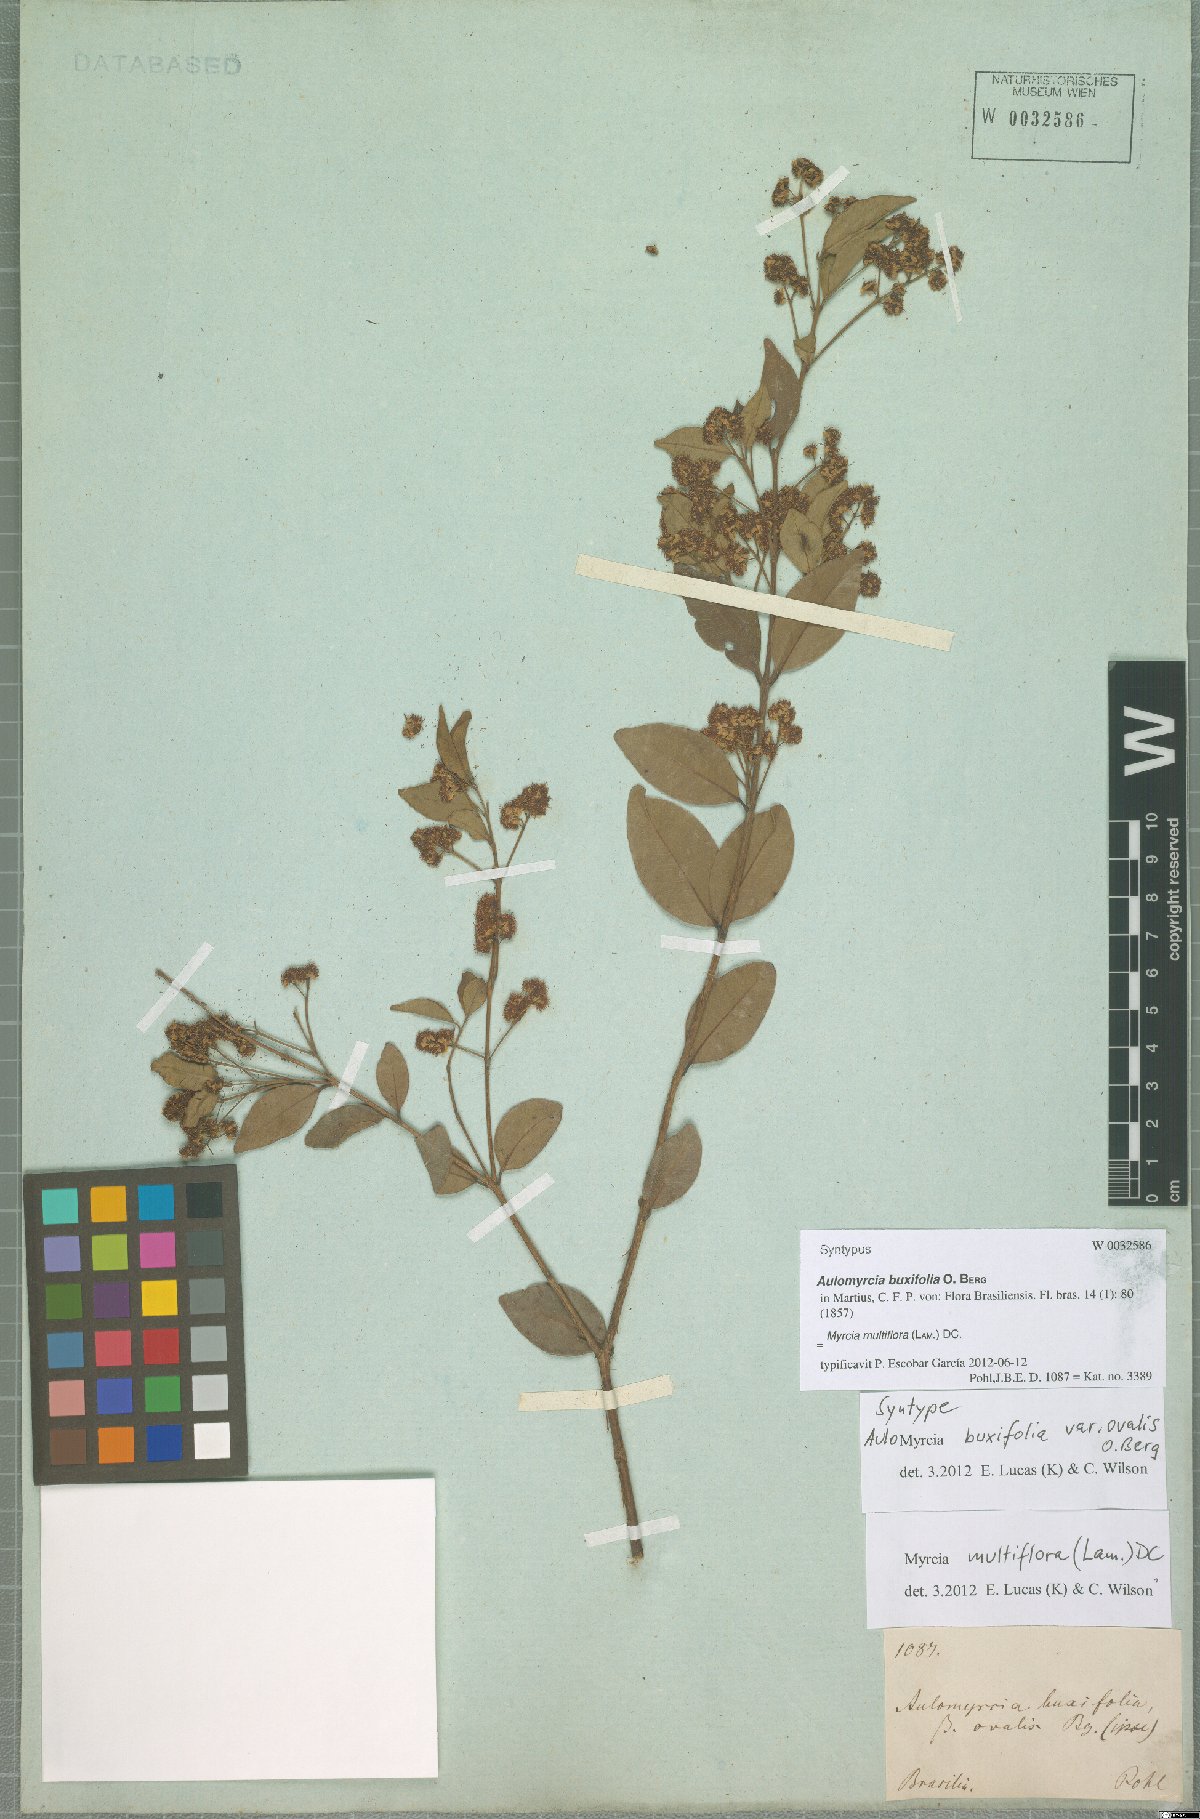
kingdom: Plantae
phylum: Tracheophyta
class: Magnoliopsida
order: Myrtales
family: Myrtaceae
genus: Myrcia
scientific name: Myrcia multiflora
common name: Pedra hume
